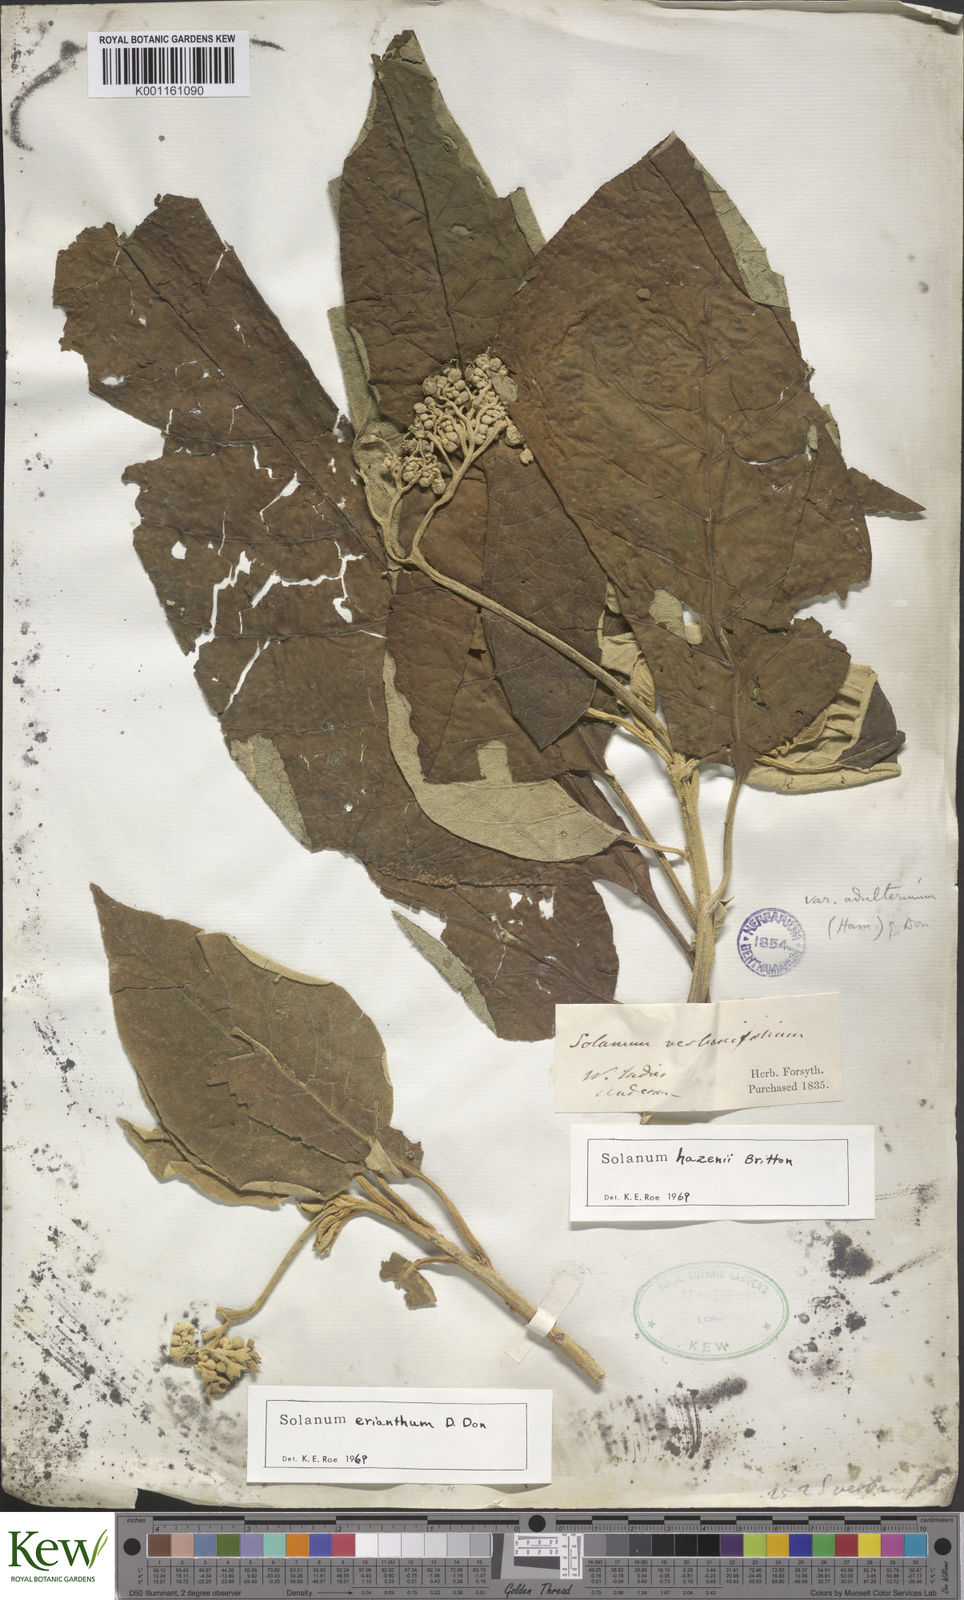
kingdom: Plantae
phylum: Tracheophyta
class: Magnoliopsida
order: Solanales
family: Solanaceae
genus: Solanum
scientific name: Solanum erianthum
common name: Tobacco-tree
